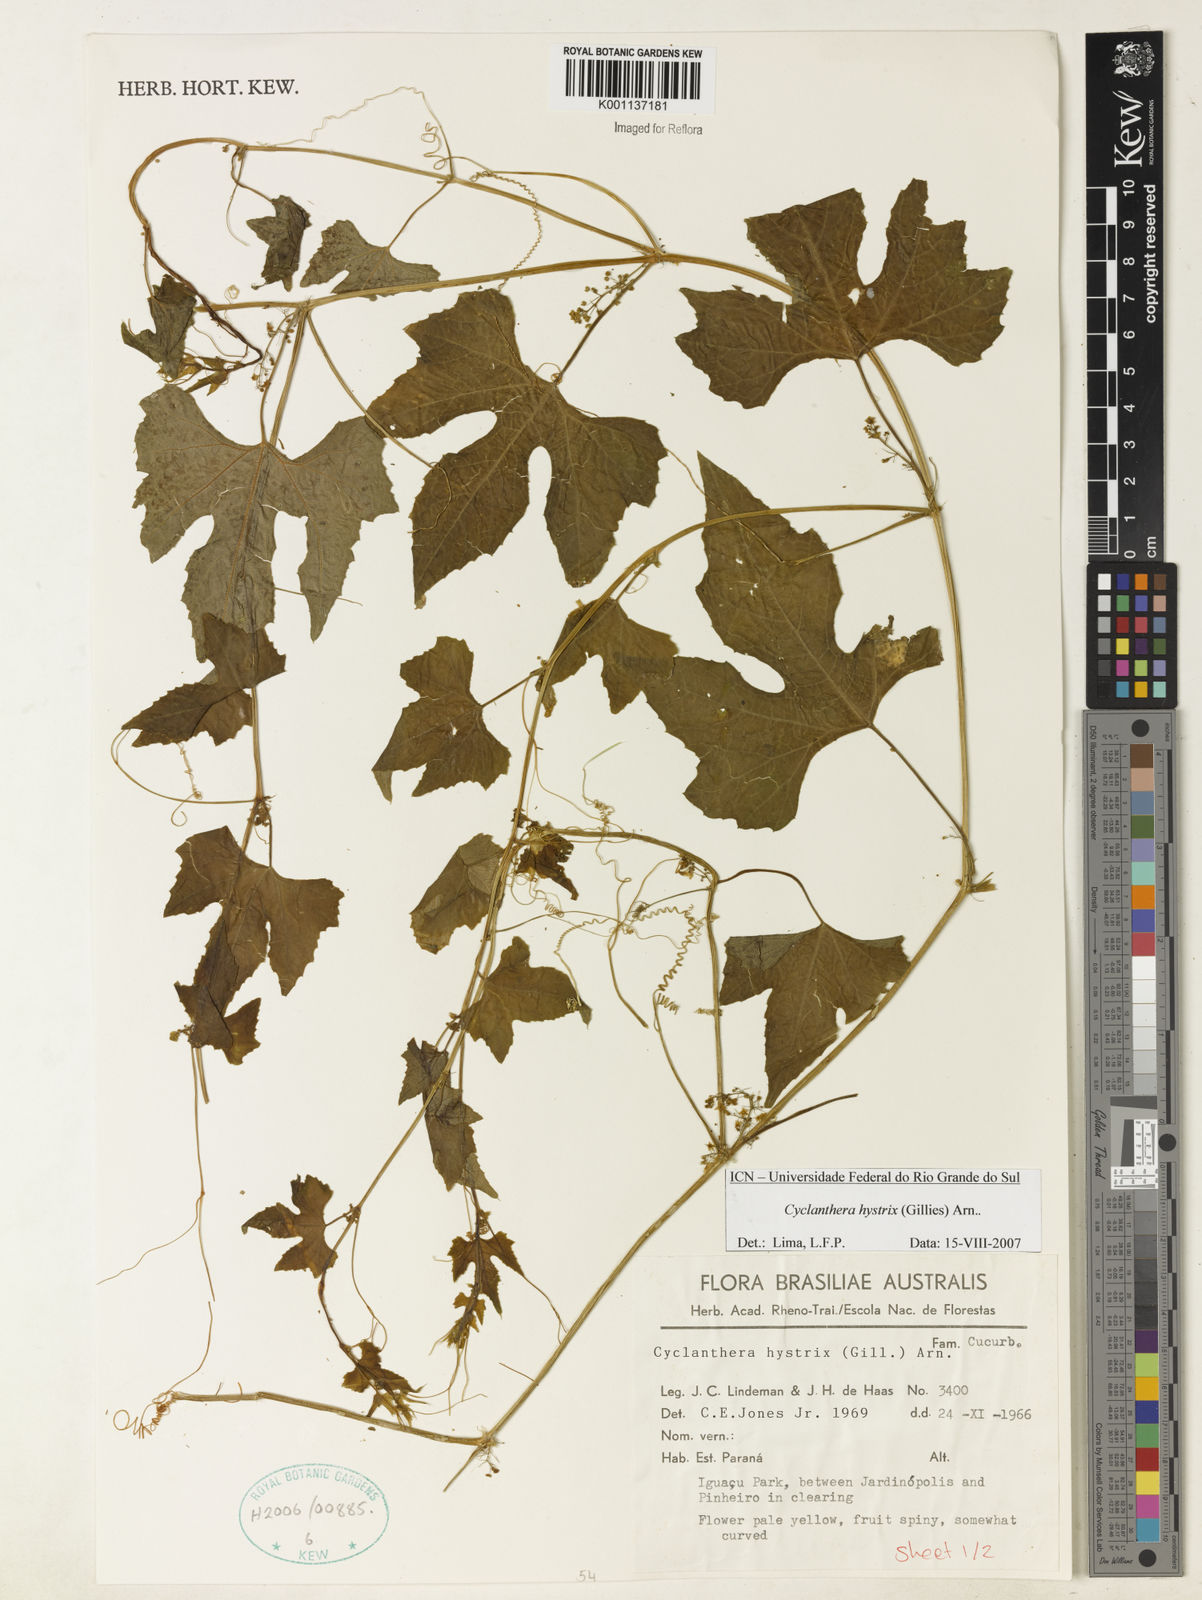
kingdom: Plantae
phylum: Tracheophyta
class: Magnoliopsida
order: Cucurbitales
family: Cucurbitaceae
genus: Cyclanthera
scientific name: Cyclanthera hystrix
